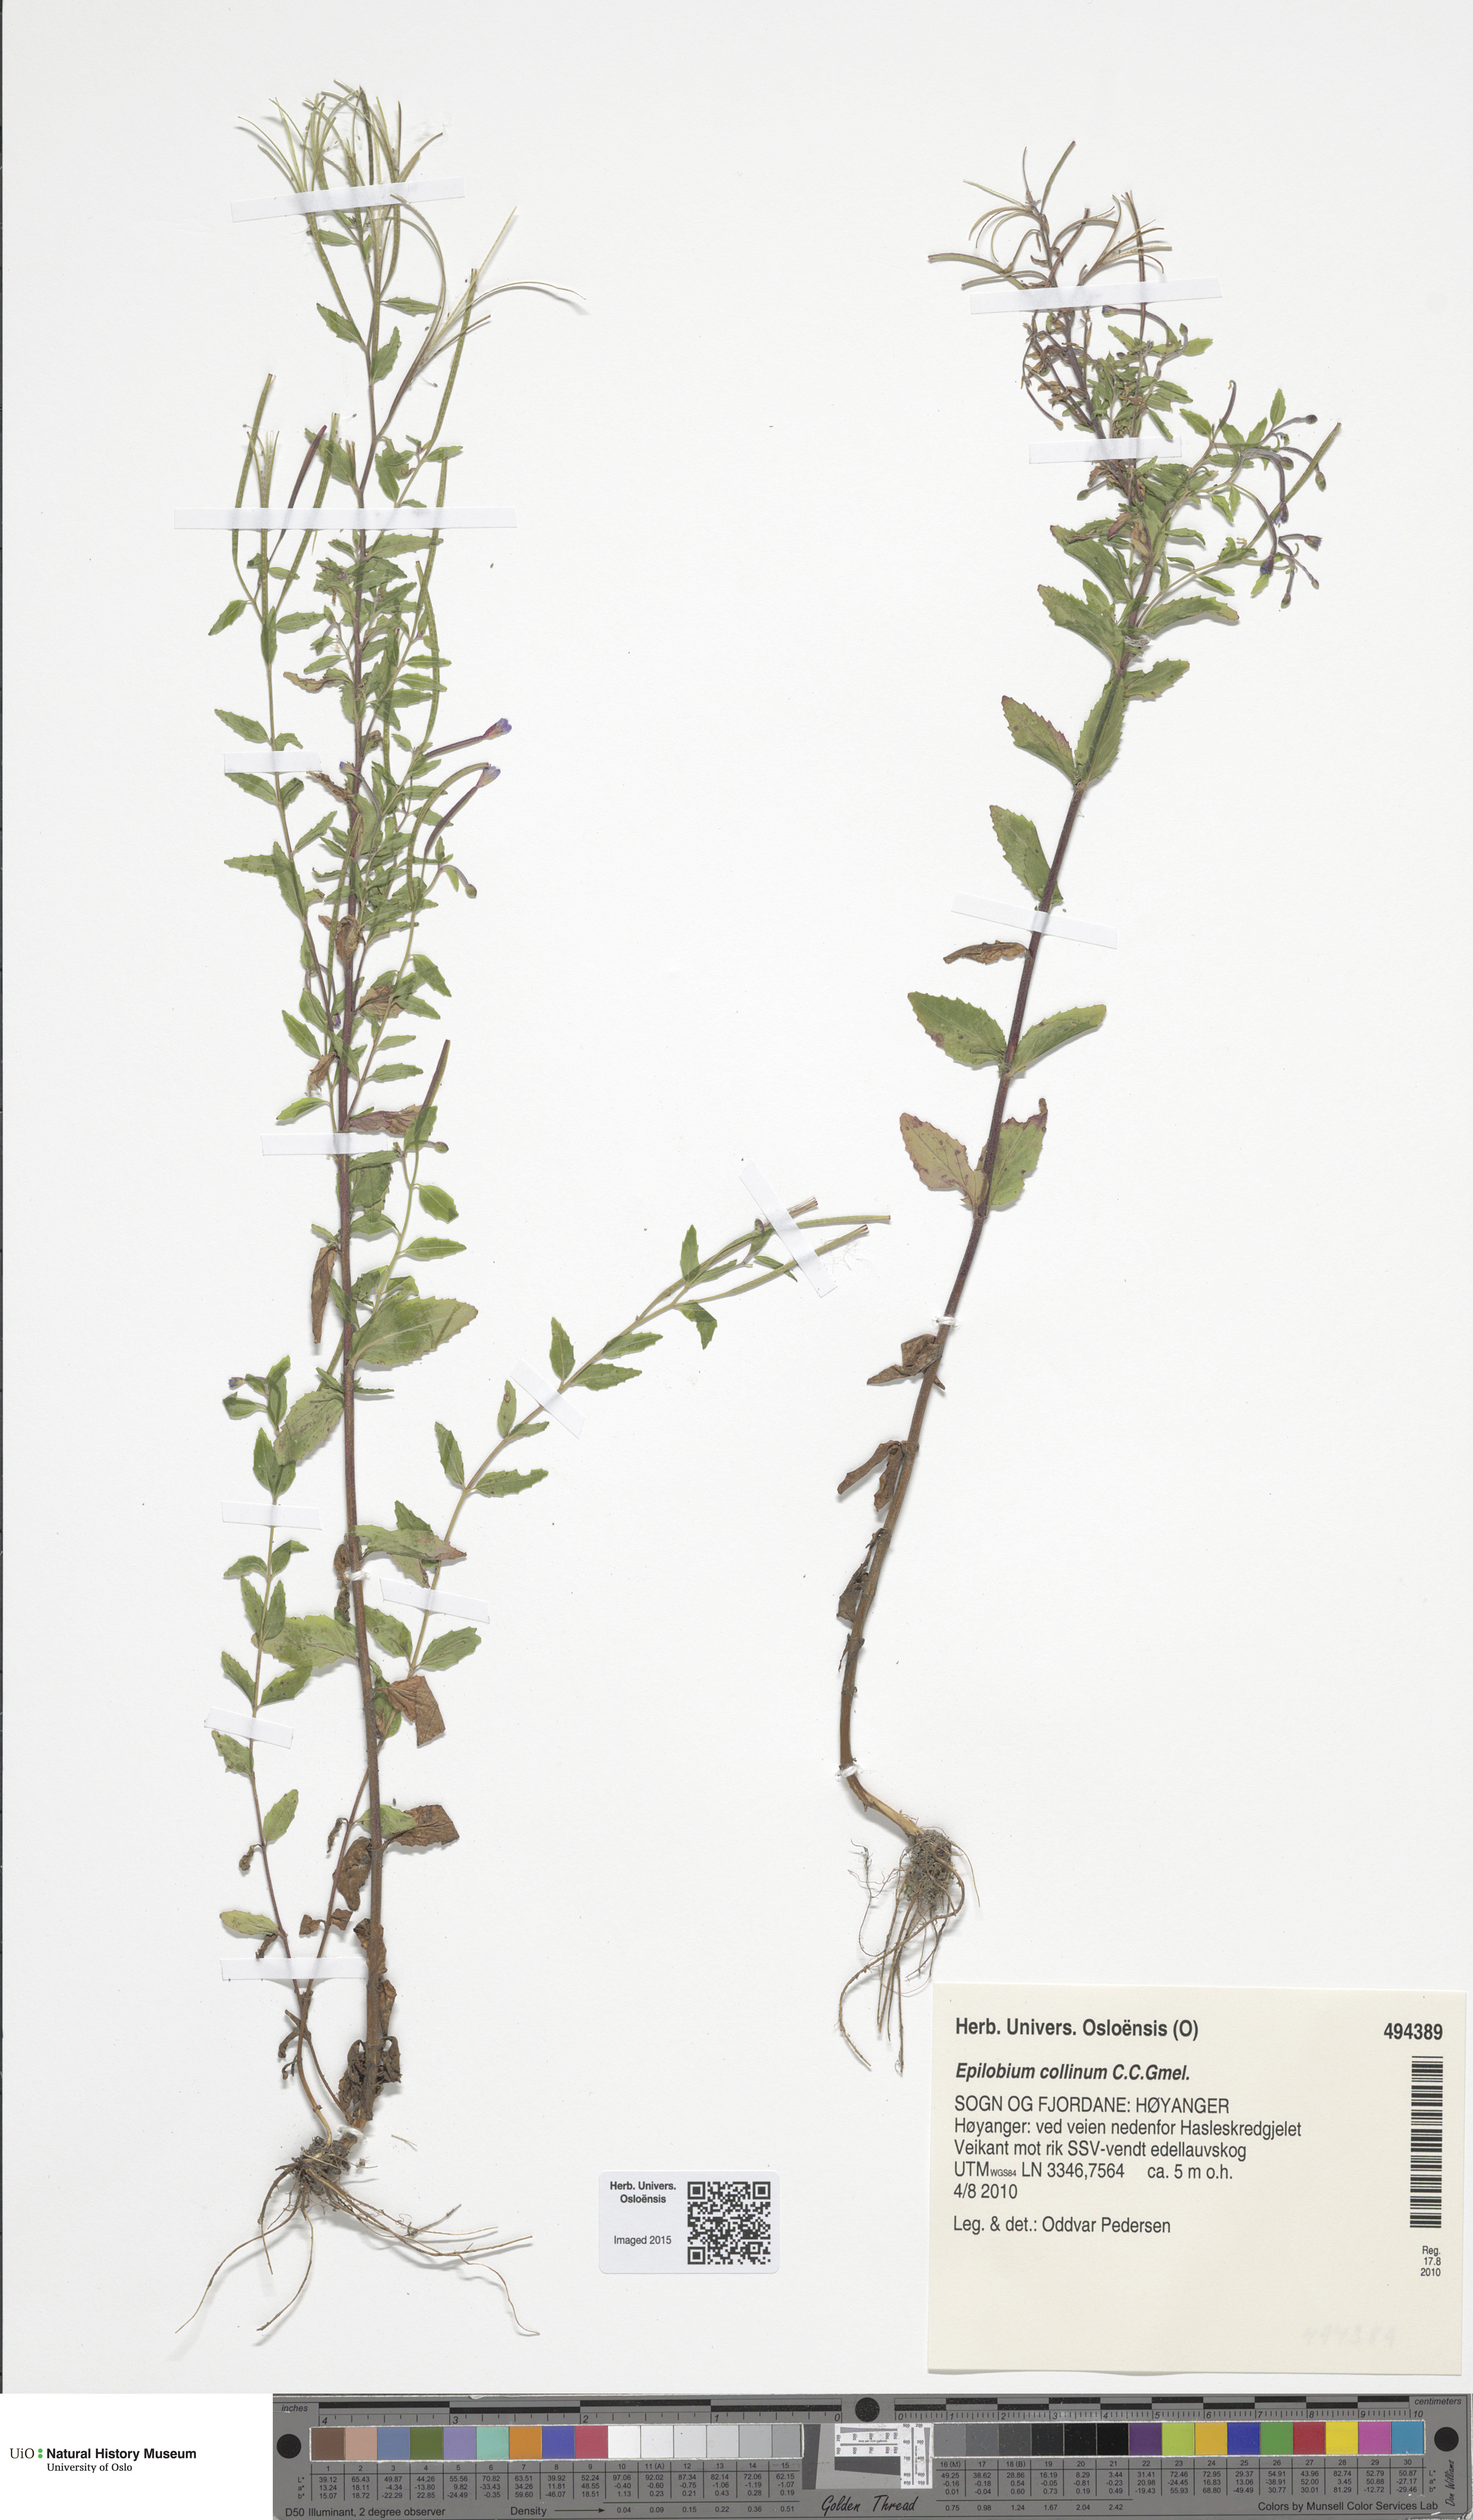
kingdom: Plantae
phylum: Tracheophyta
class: Magnoliopsida
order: Myrtales
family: Onagraceae
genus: Epilobium
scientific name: Epilobium collinum
